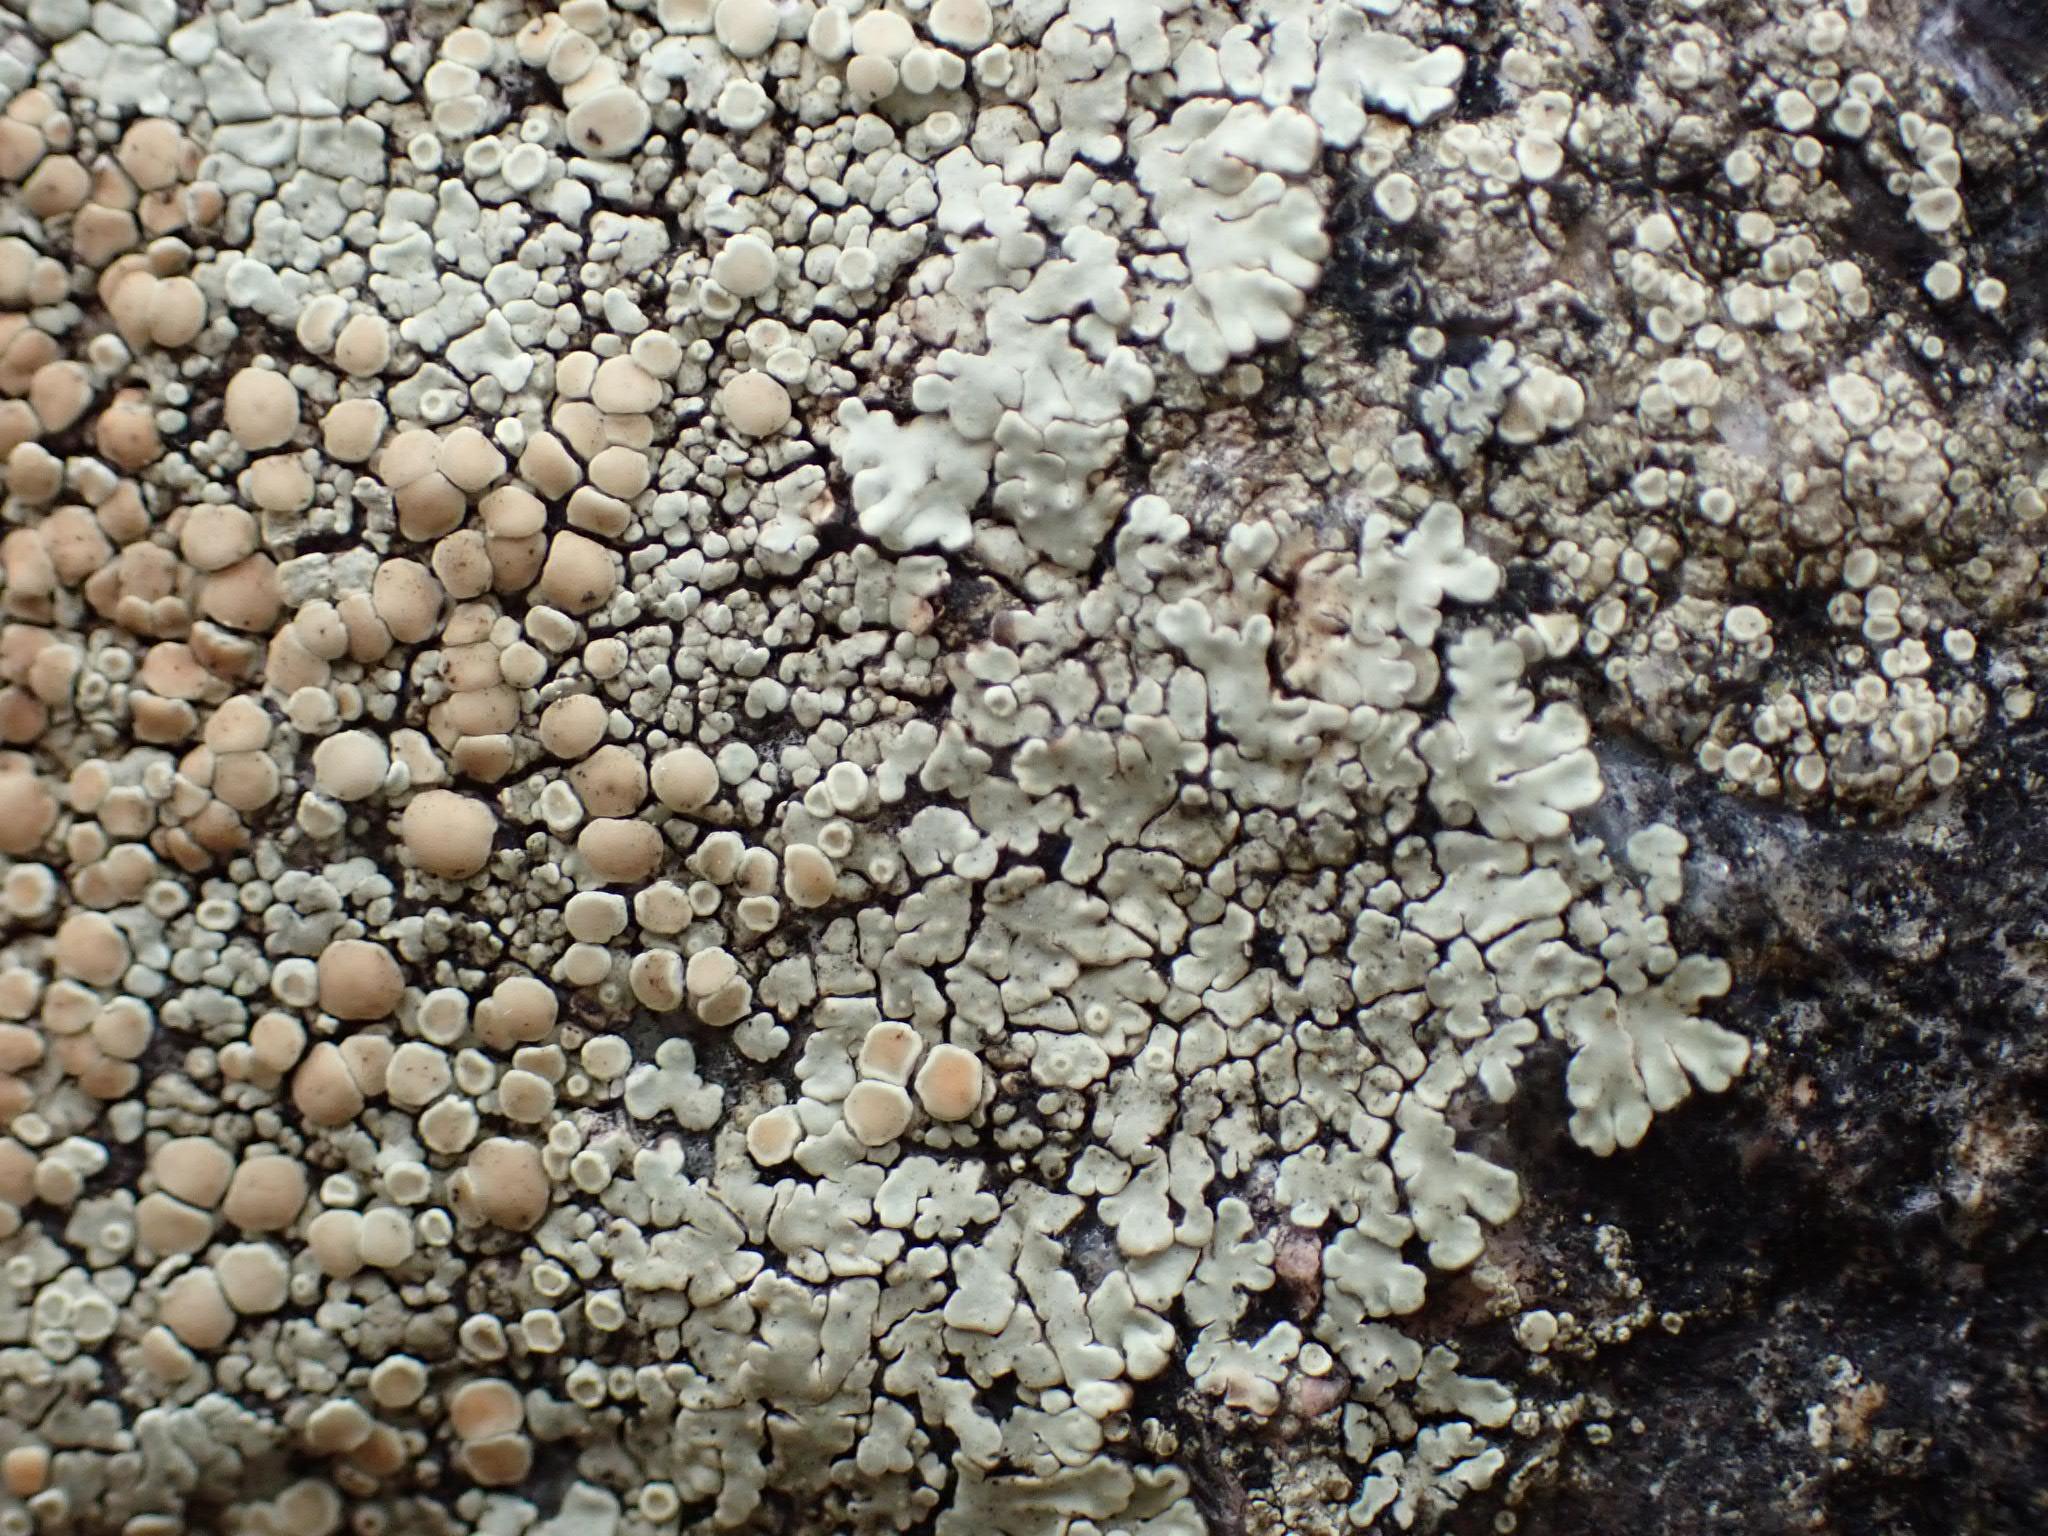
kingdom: Fungi
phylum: Ascomycota
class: Lecanoromycetes
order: Lecanorales
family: Lecanoraceae
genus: Protoparmeliopsis
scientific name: Protoparmeliopsis muralis
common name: randfliget kantskivelav
